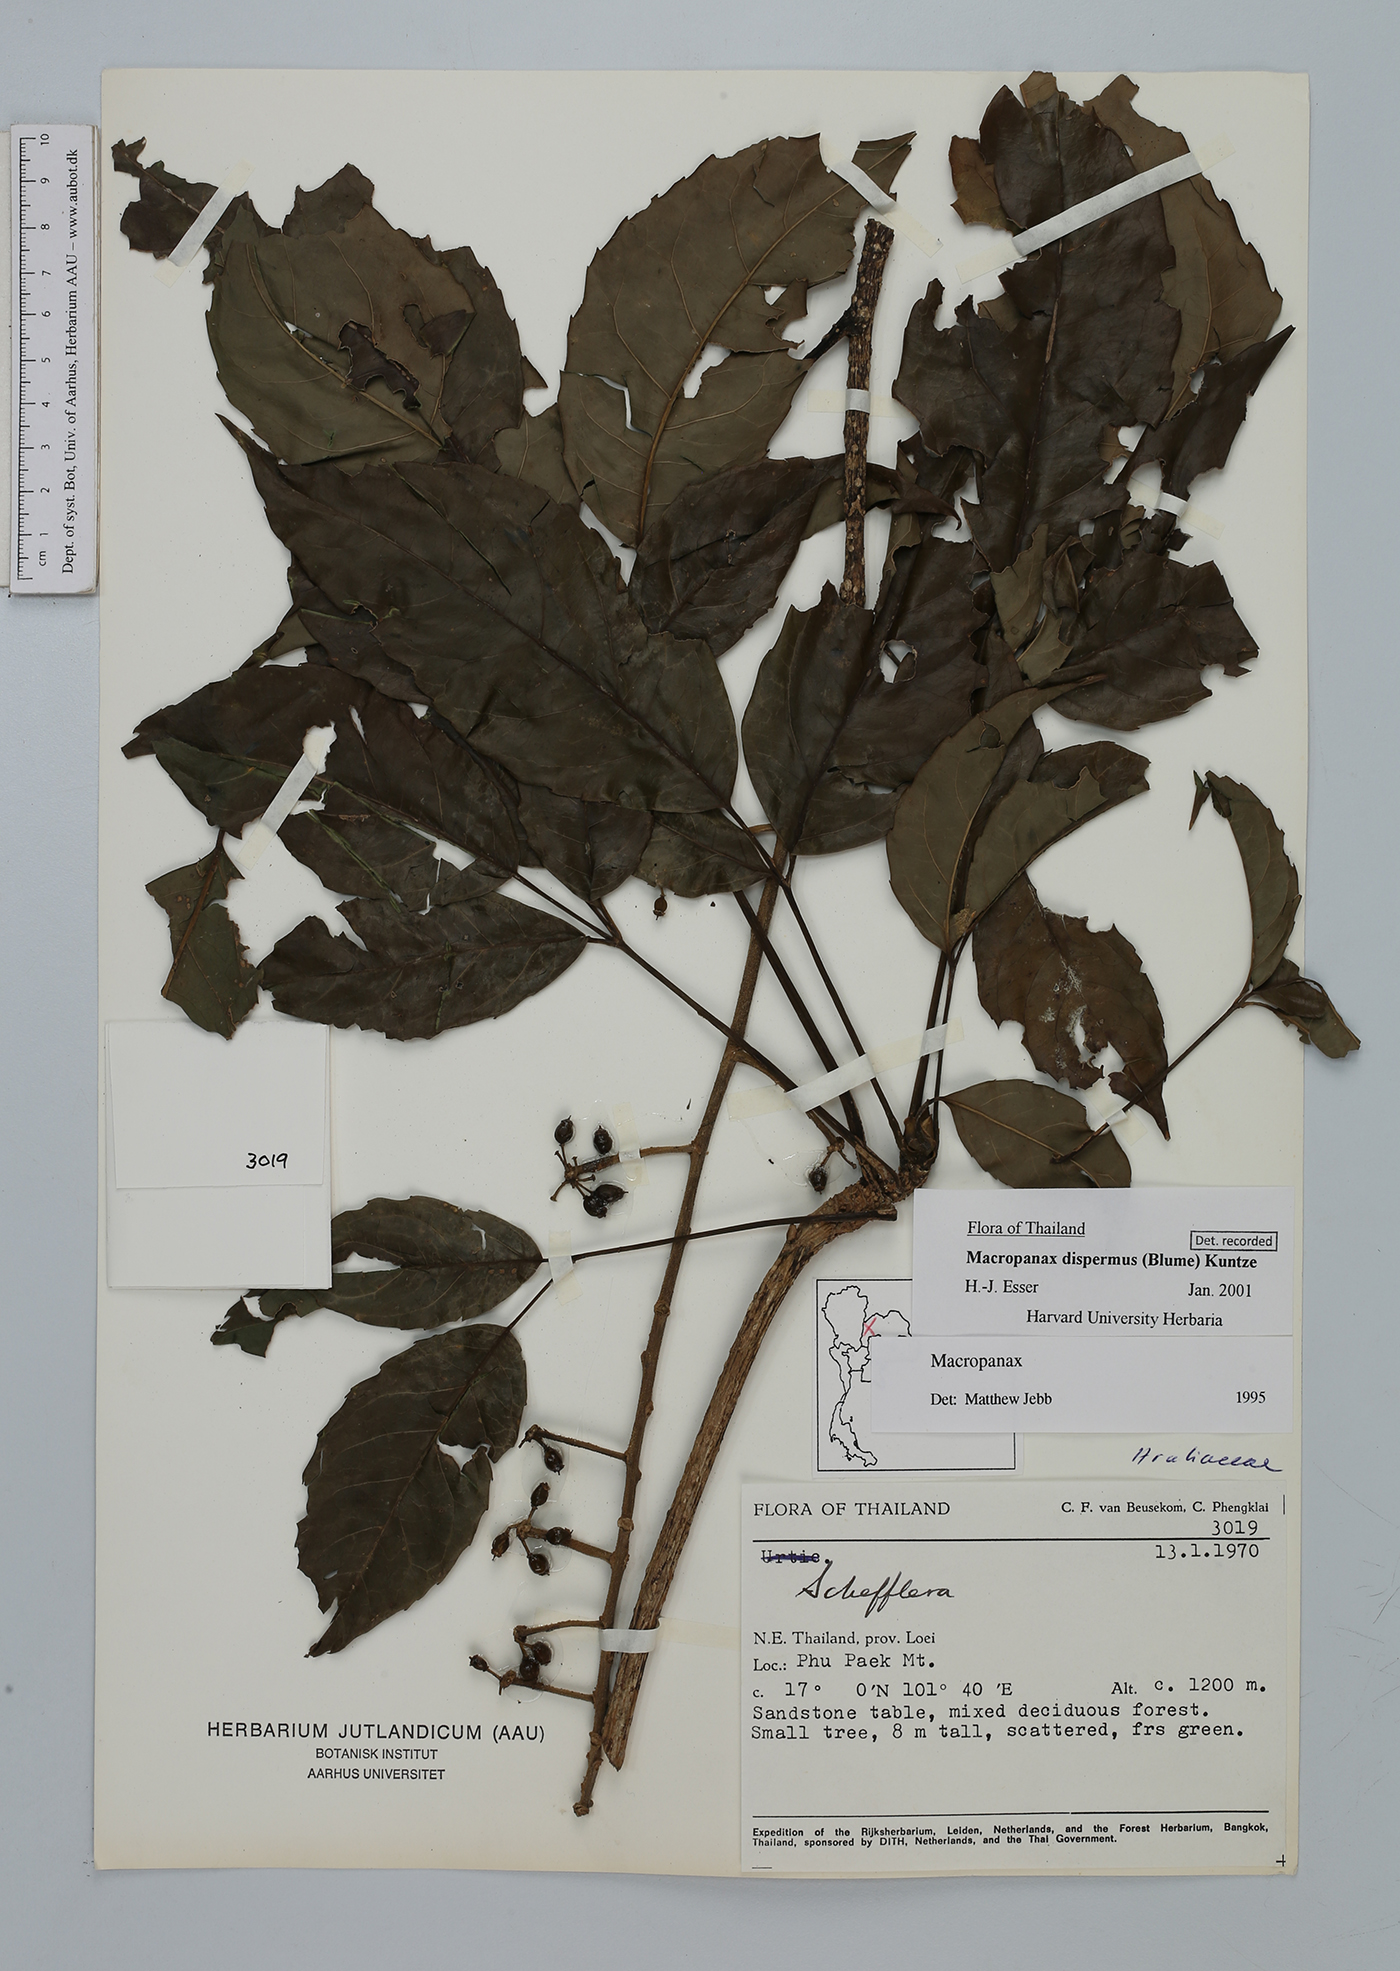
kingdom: Plantae
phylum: Tracheophyta
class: Magnoliopsida
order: Apiales
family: Araliaceae
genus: Macropanax
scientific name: Macropanax dispermus
